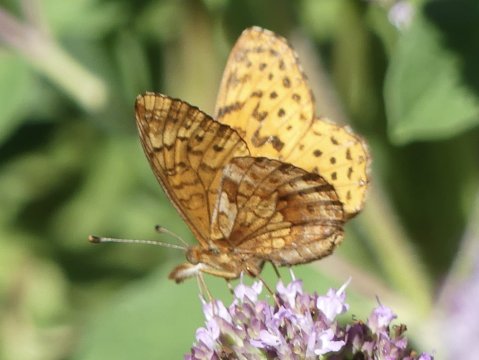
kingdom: Animalia
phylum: Arthropoda
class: Insecta
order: Lepidoptera
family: Nymphalidae
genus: Clossiana
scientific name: Clossiana toddi
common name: Meadow Fritillary
